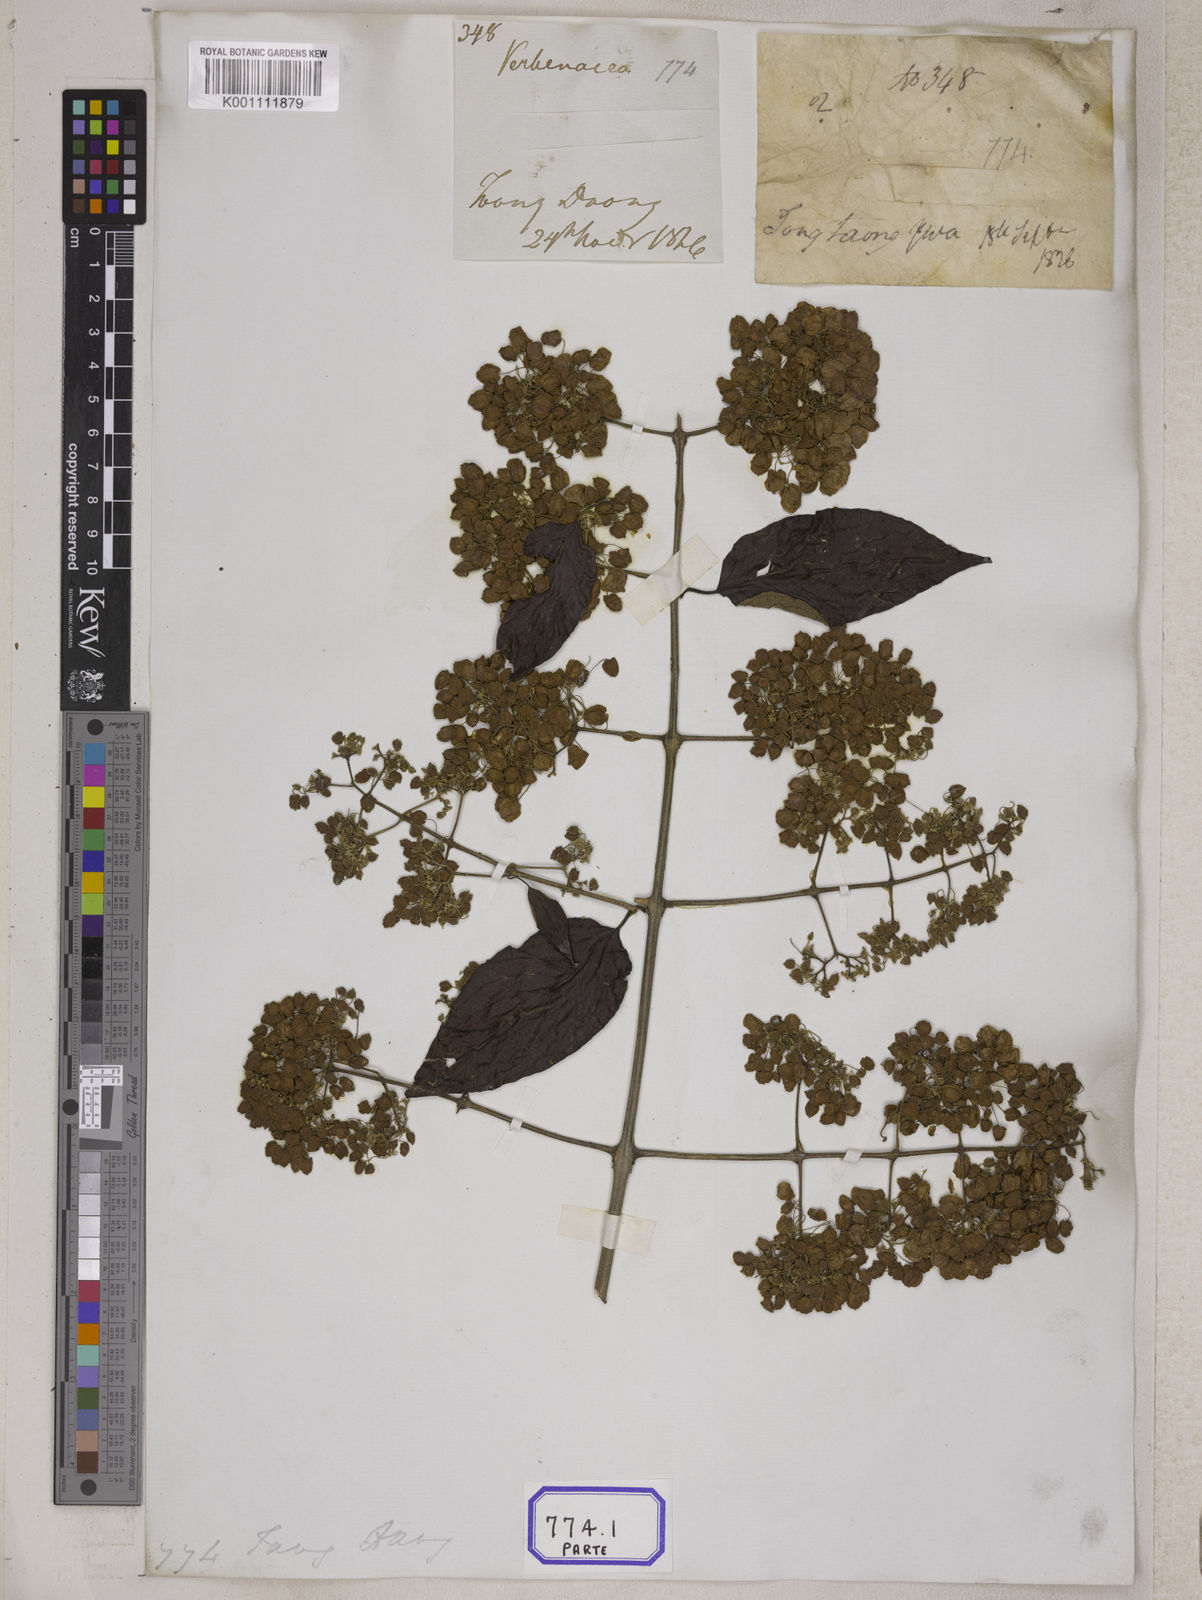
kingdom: Plantae
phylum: Tracheophyta
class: Magnoliopsida
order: Lamiales
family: Lamiaceae
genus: Hymenopyramis
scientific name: Hymenopyramis
